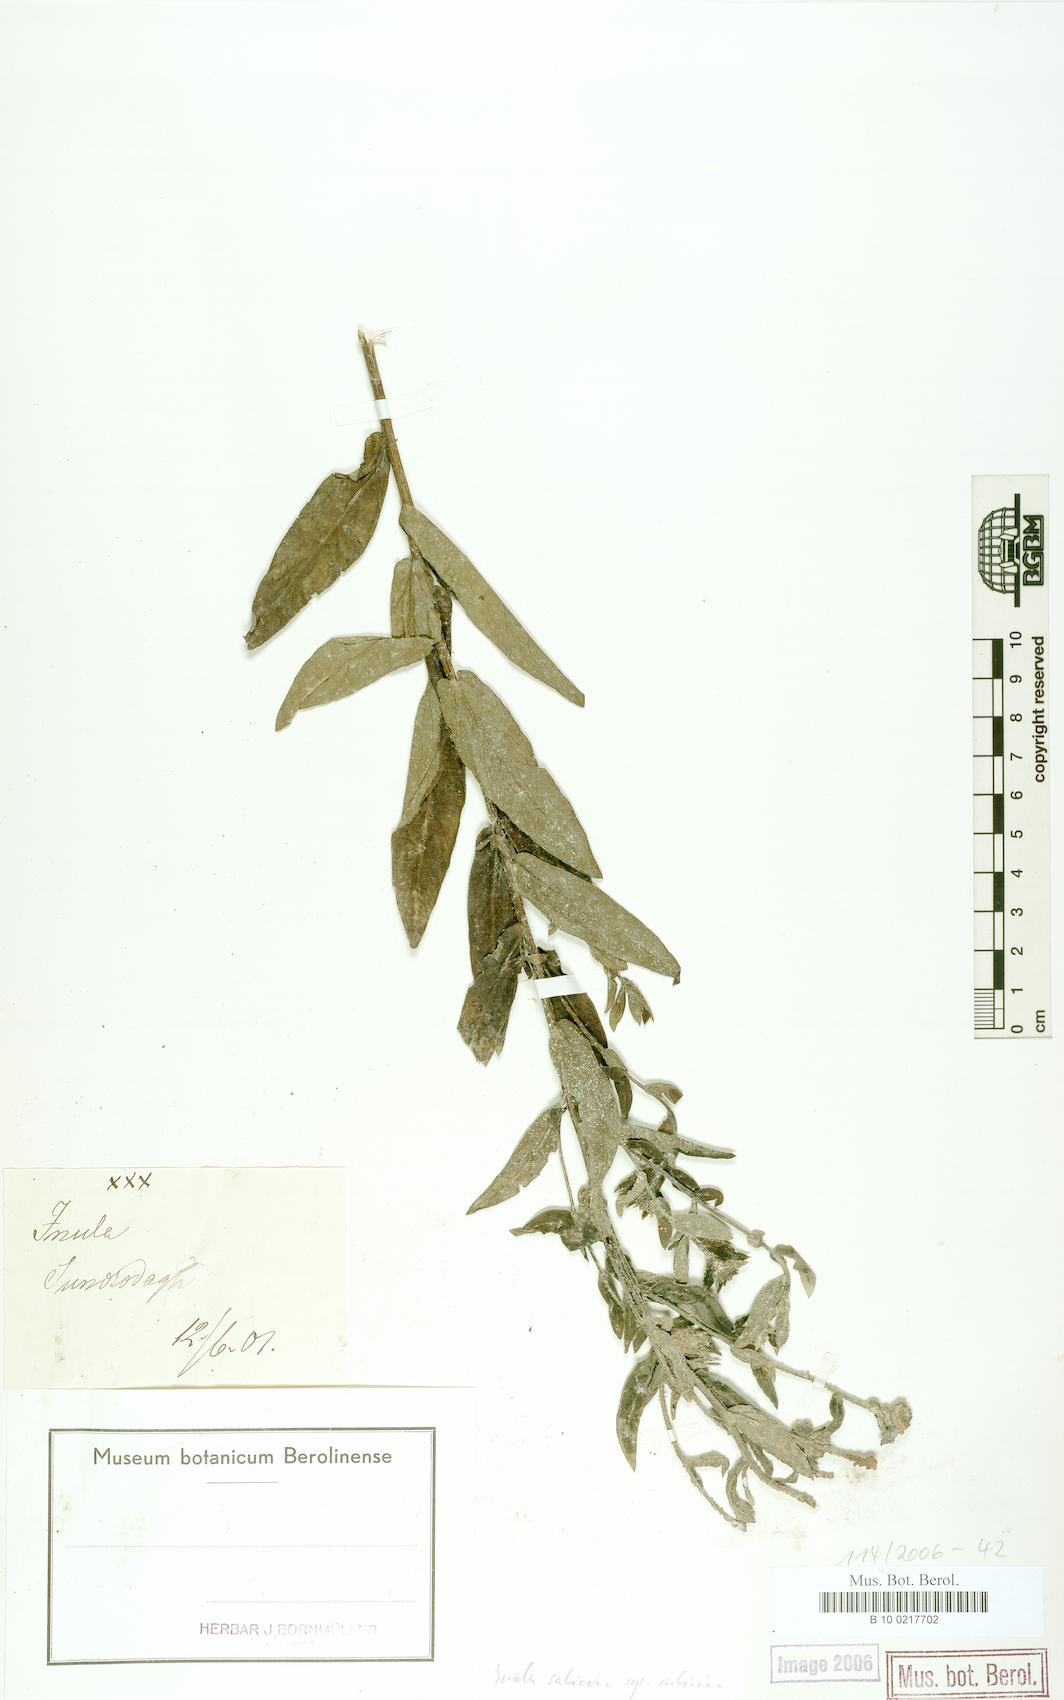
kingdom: Plantae
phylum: Tracheophyta
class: Magnoliopsida
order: Asterales
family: Asteraceae
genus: Pentanema
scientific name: Pentanema salicinum
